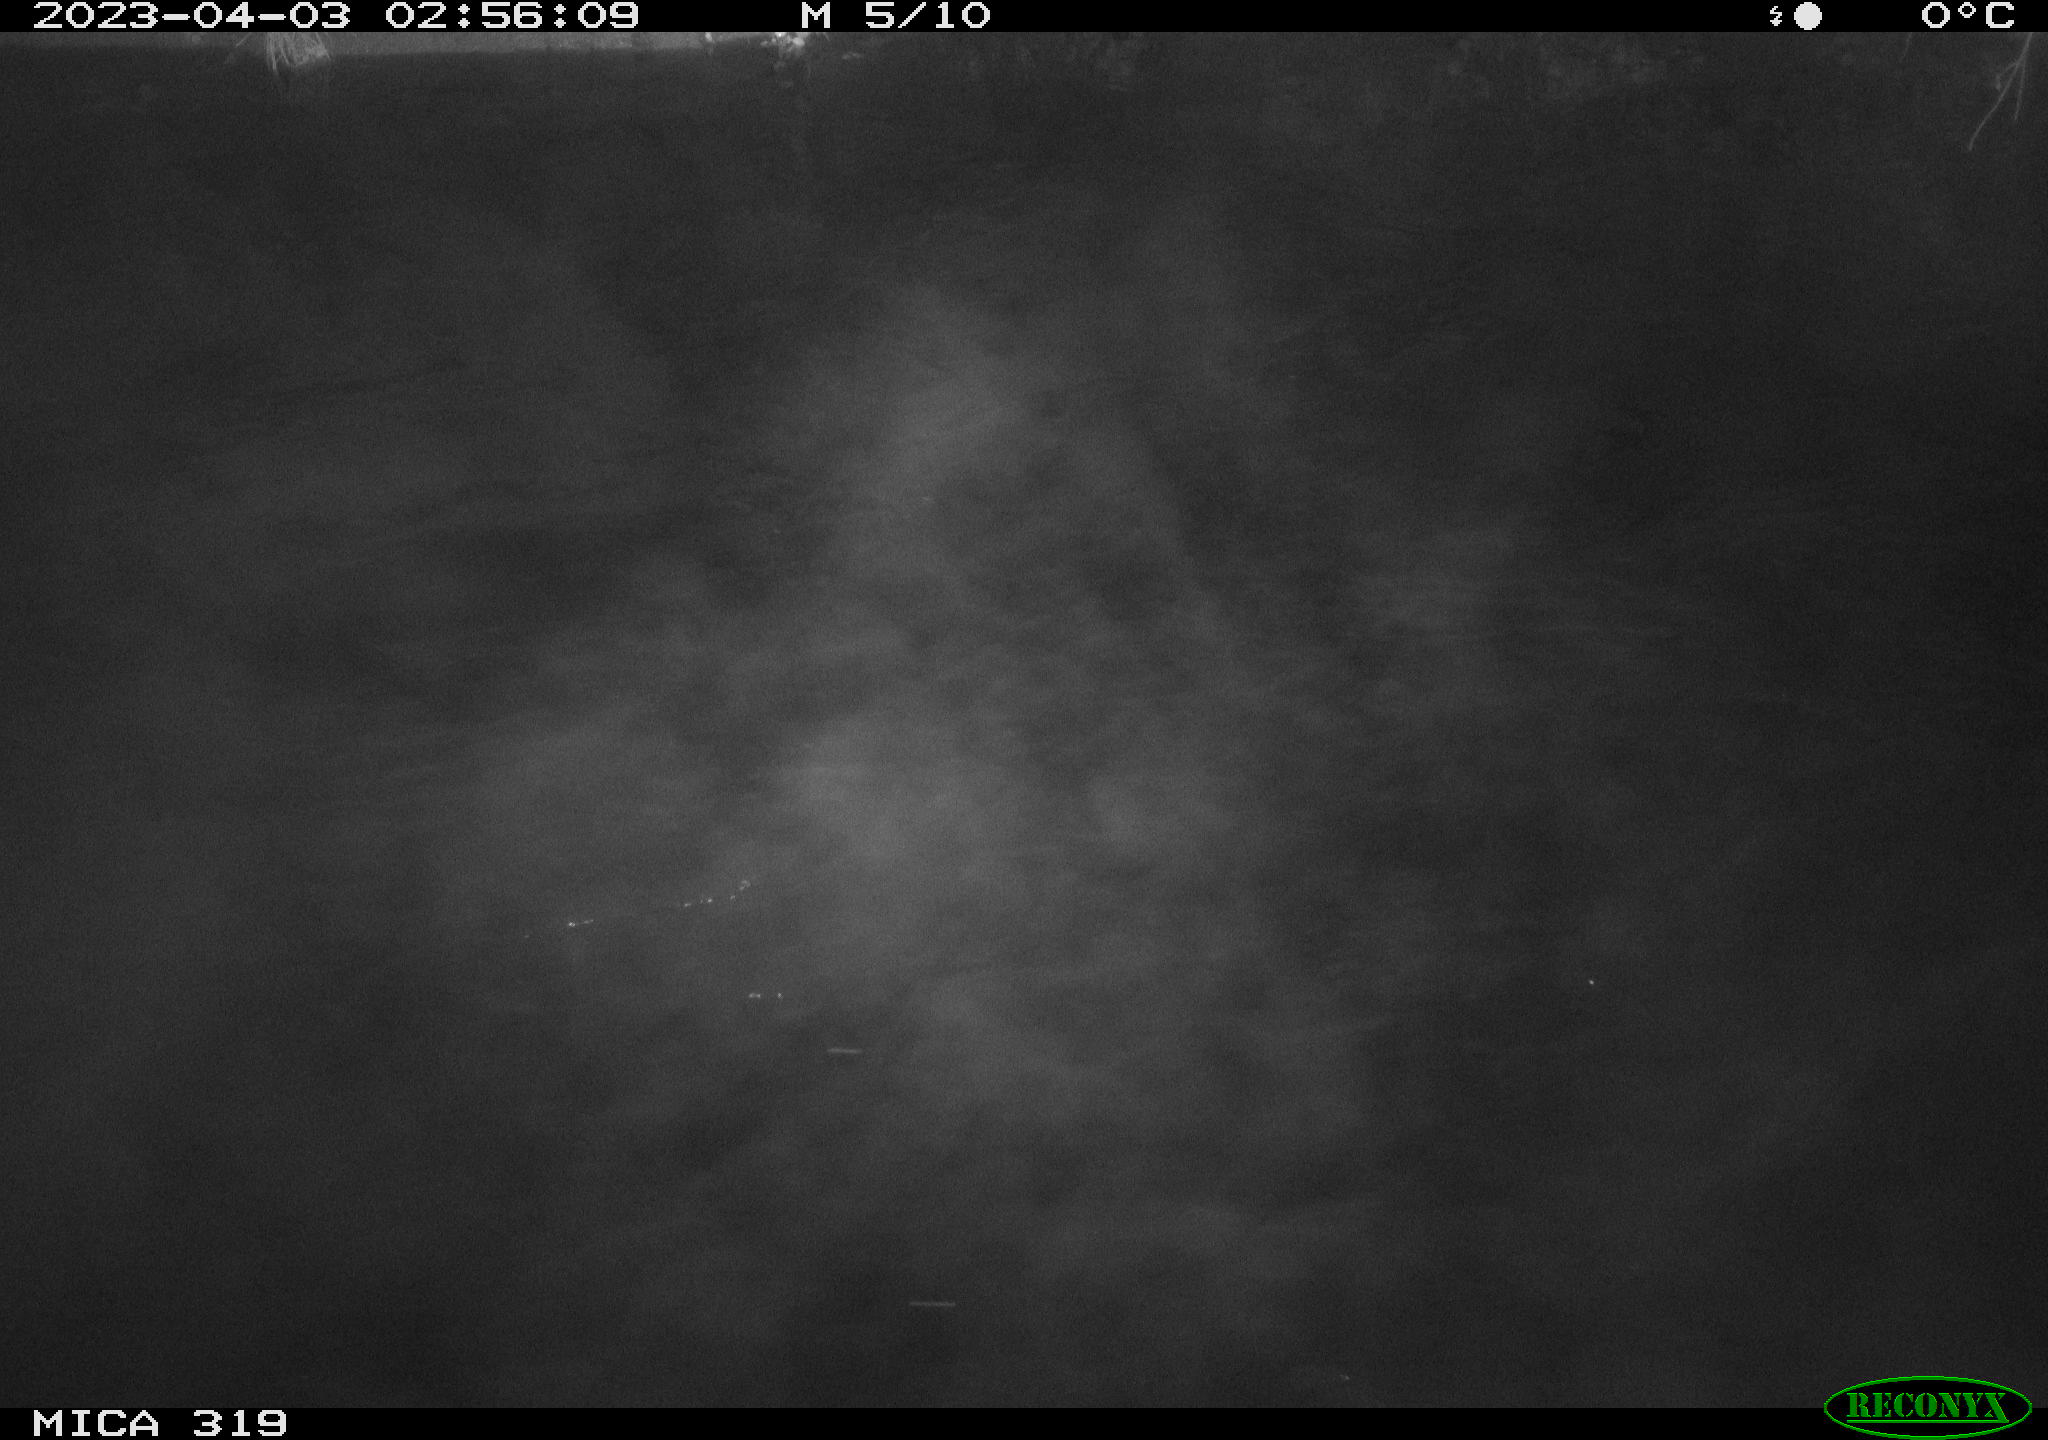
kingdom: Animalia
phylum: Chordata
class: Mammalia
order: Rodentia
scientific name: Rodentia
